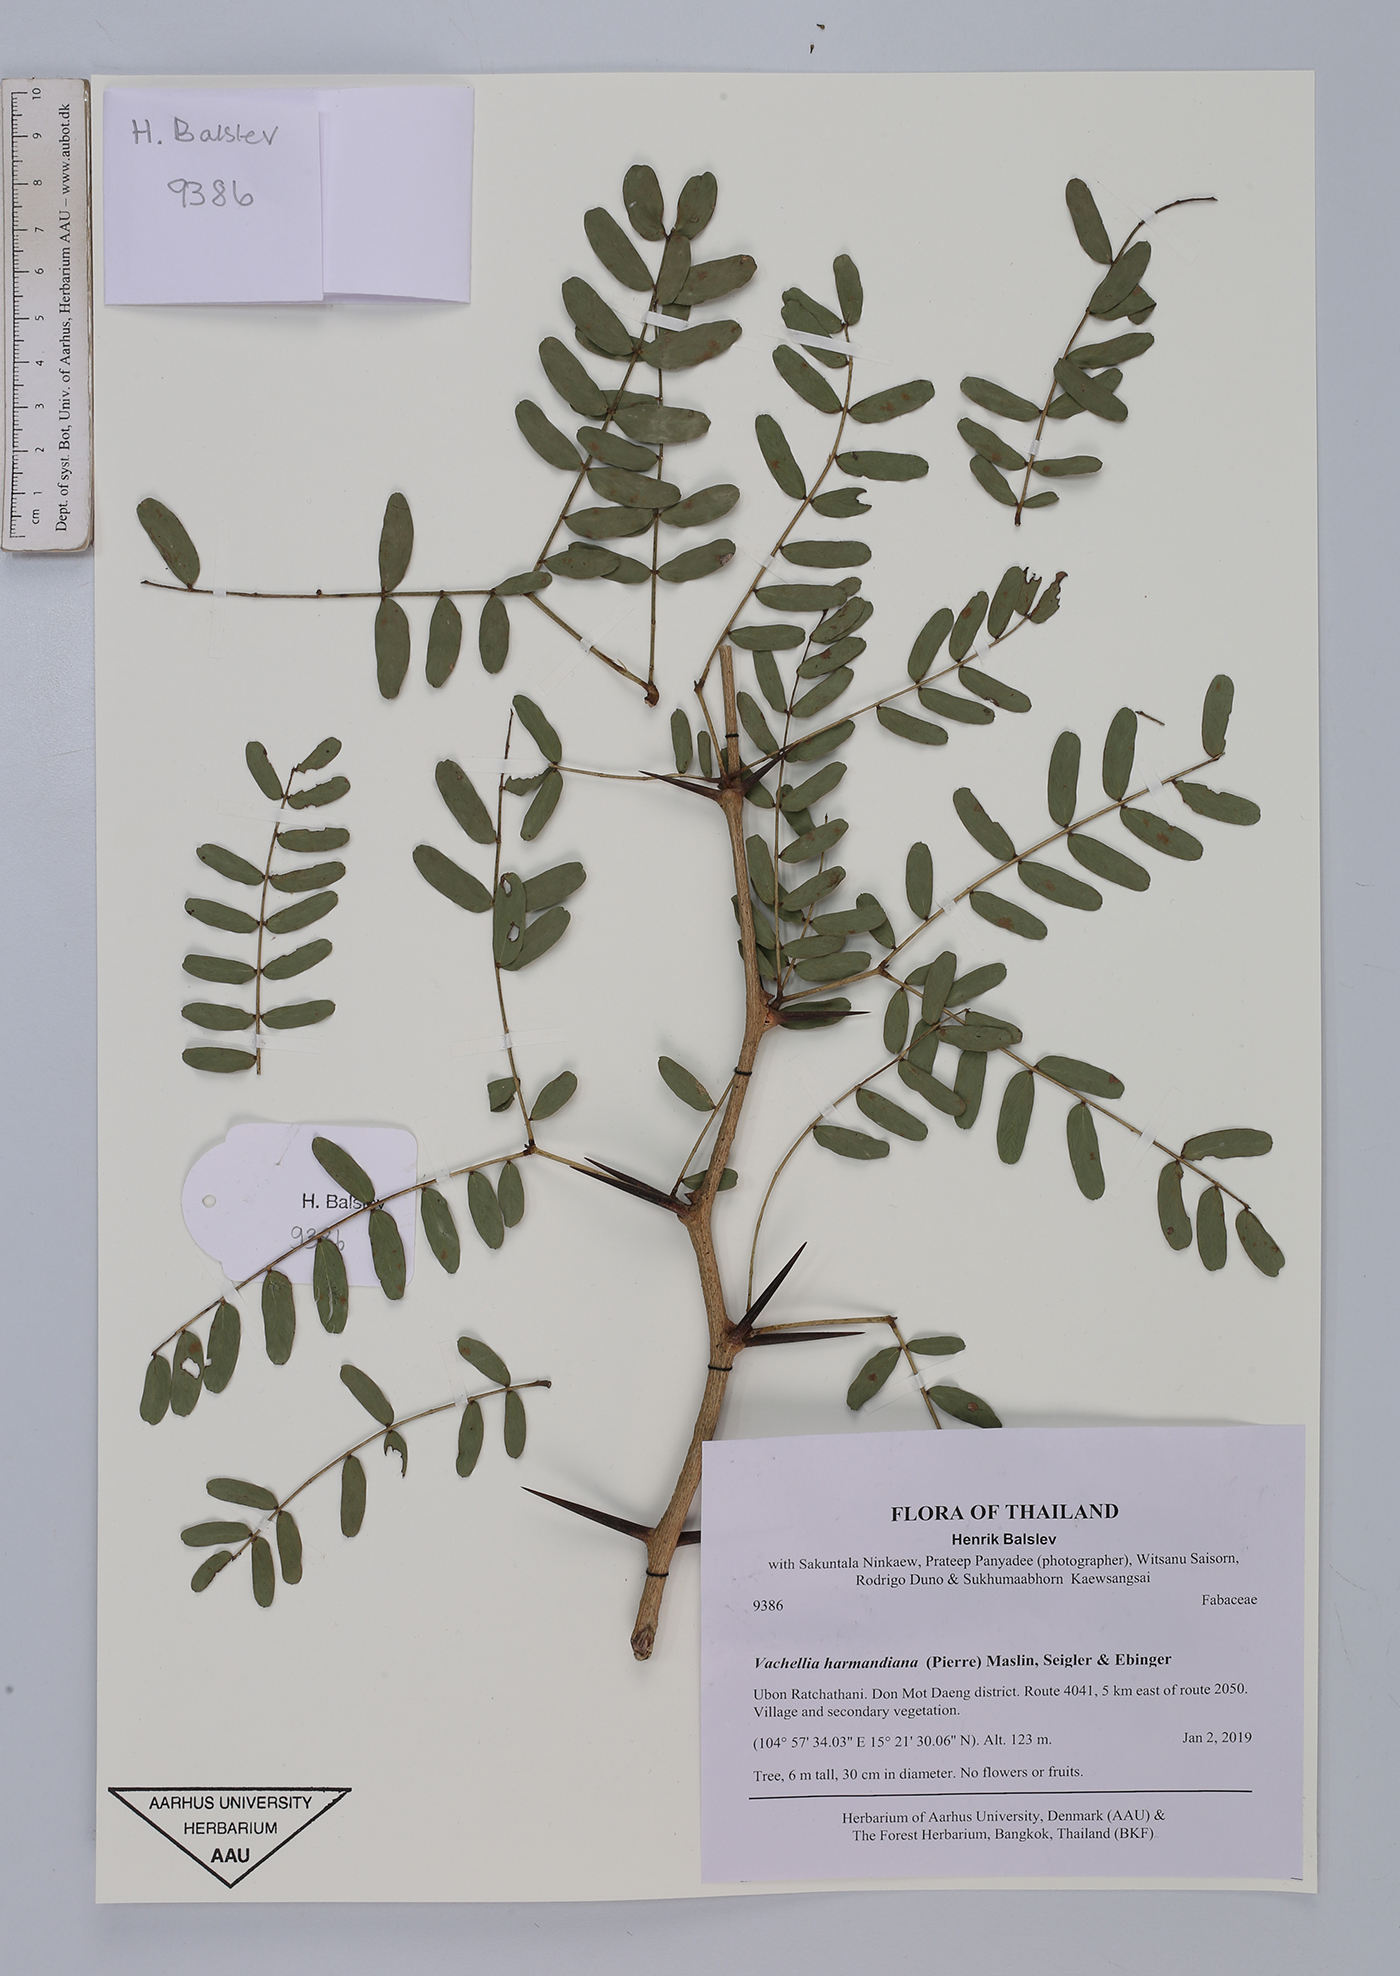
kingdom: Plantae
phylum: Tracheophyta
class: Magnoliopsida
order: Fabales
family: Fabaceae
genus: Vachellia
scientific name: Vachellia harmandiana
